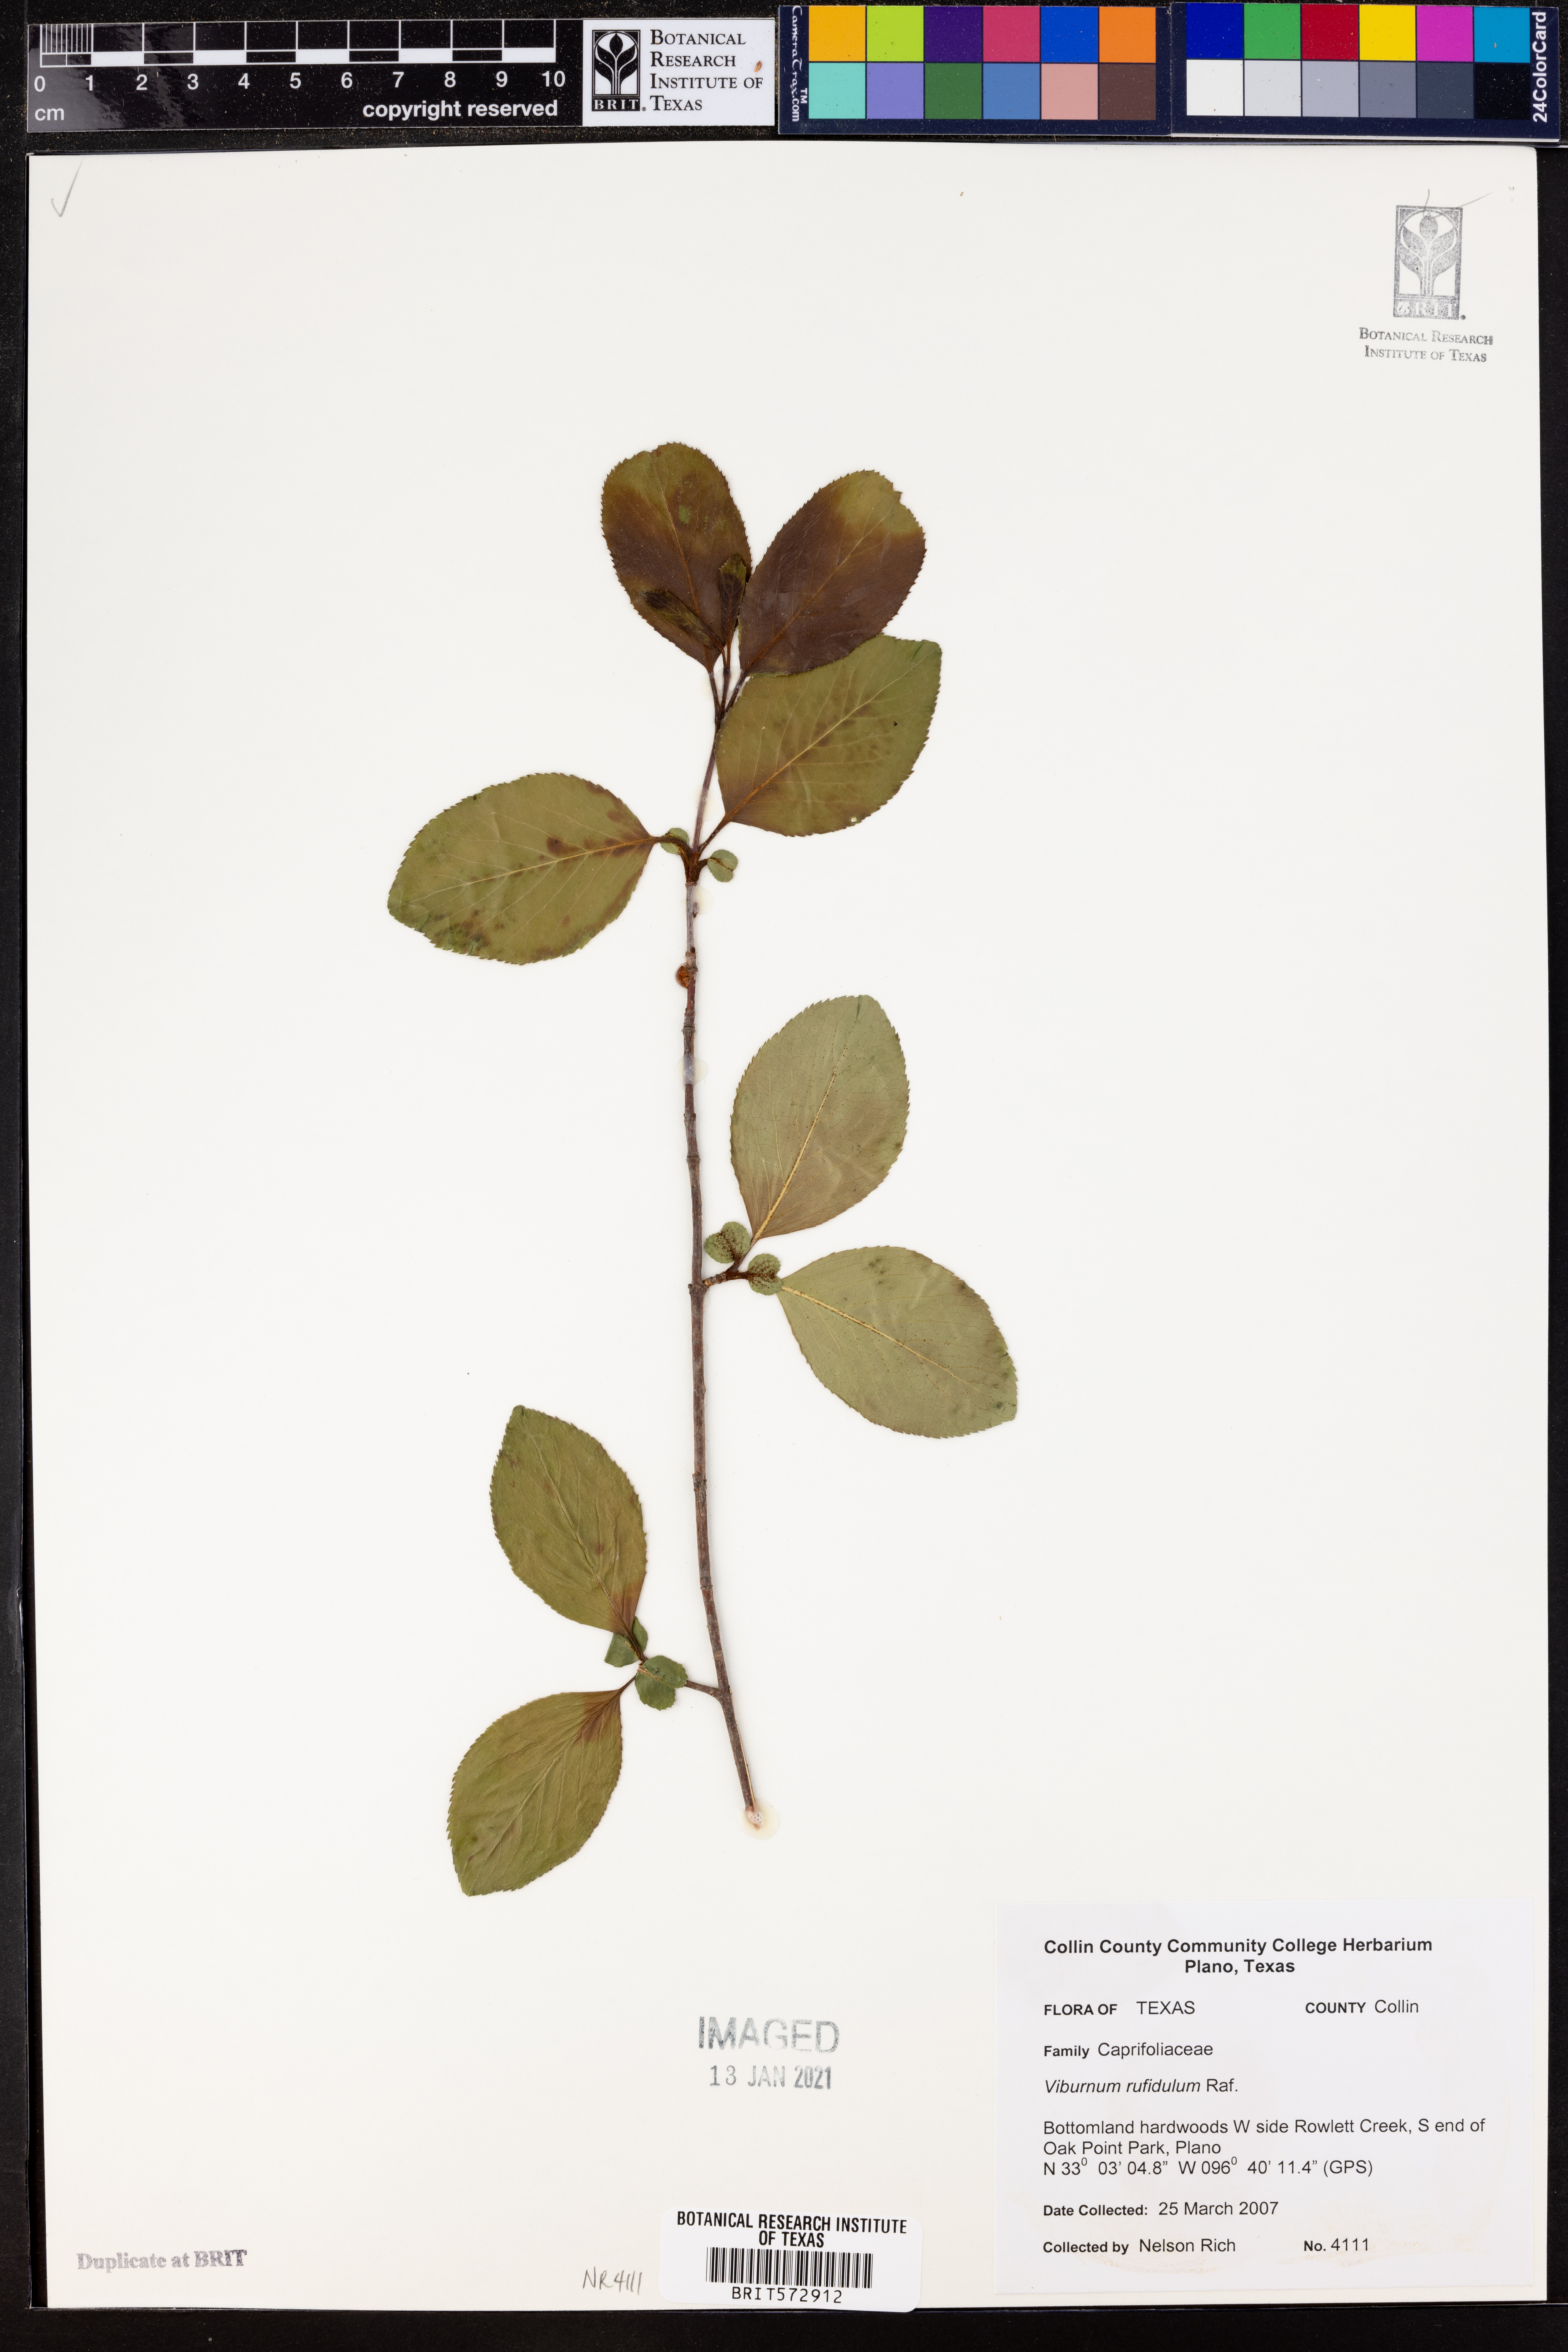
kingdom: Plantae
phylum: Tracheophyta
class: Magnoliopsida
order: Dipsacales
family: Viburnaceae
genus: Viburnum
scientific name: Viburnum rufidulum
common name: Blue haw
